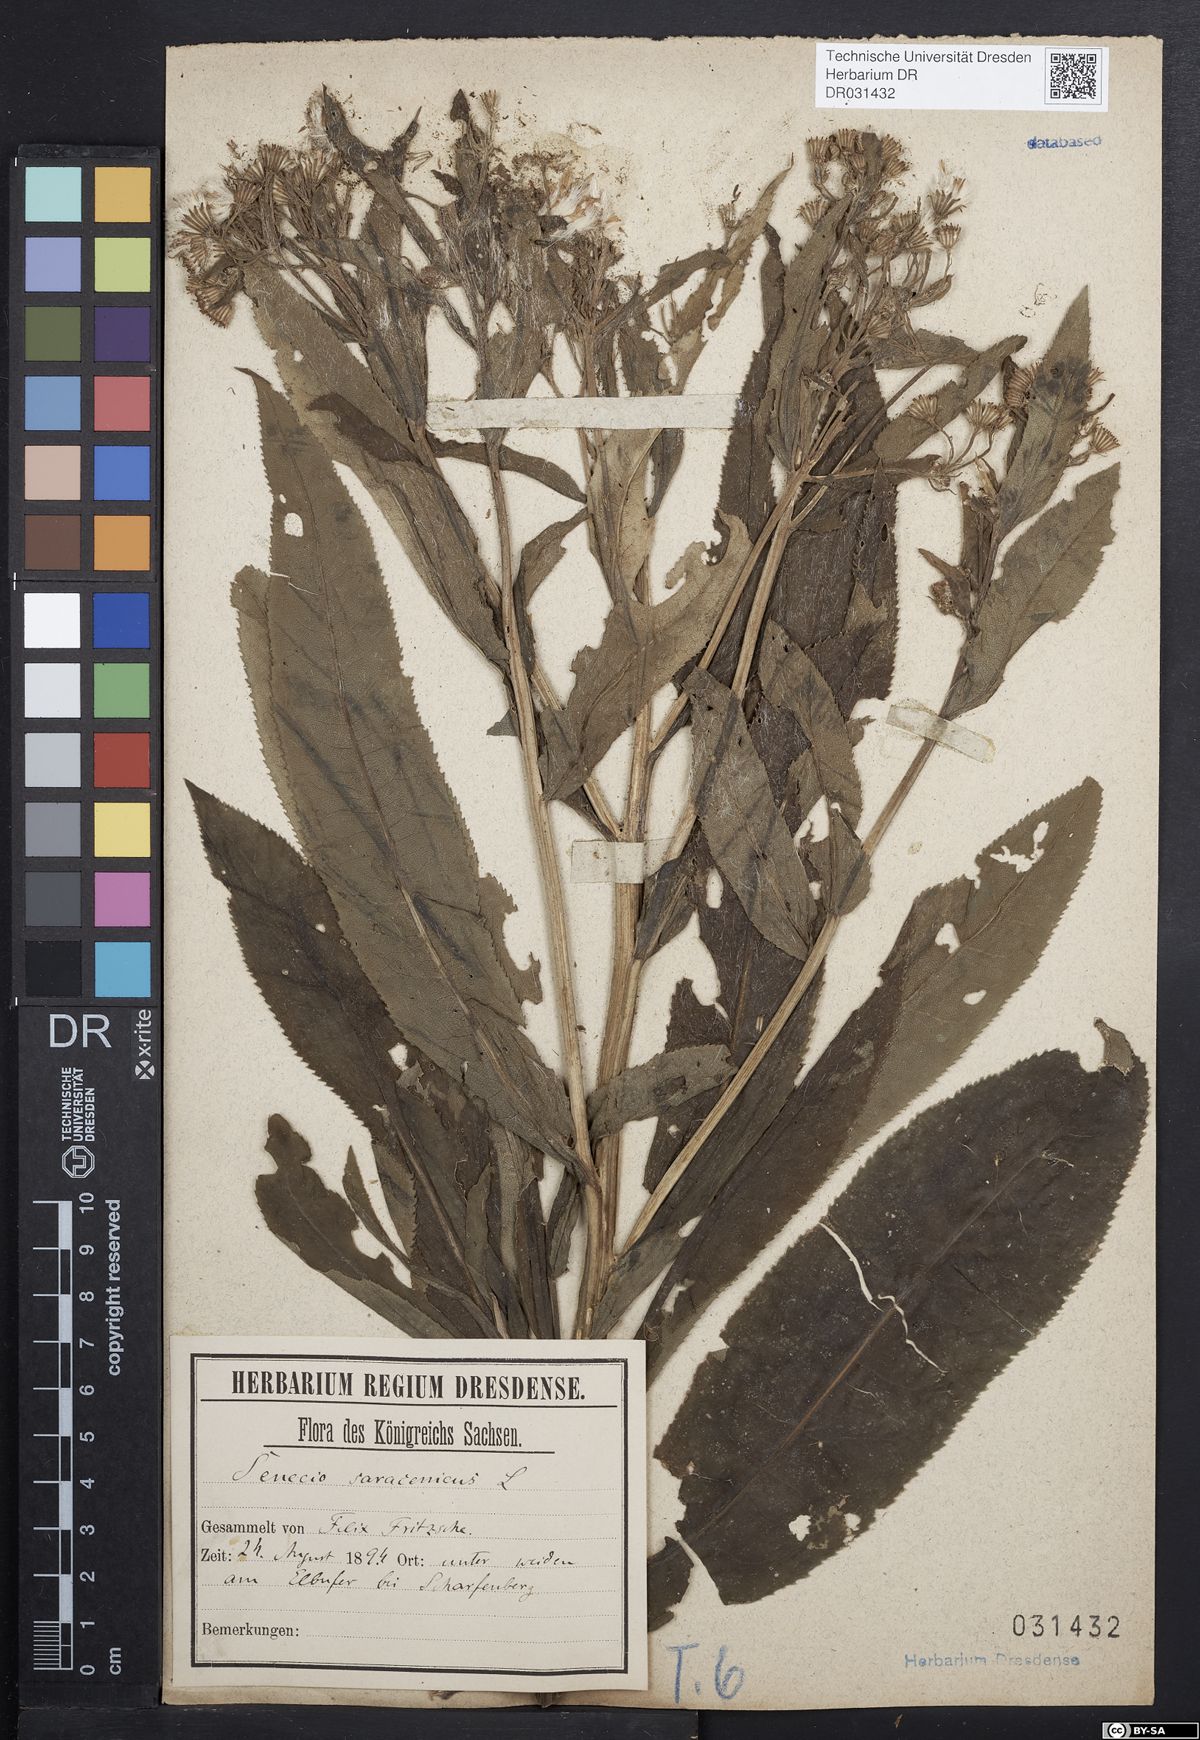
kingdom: Plantae
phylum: Tracheophyta
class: Magnoliopsida
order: Asterales
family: Asteraceae
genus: Senecio
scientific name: Senecio saracenicus
